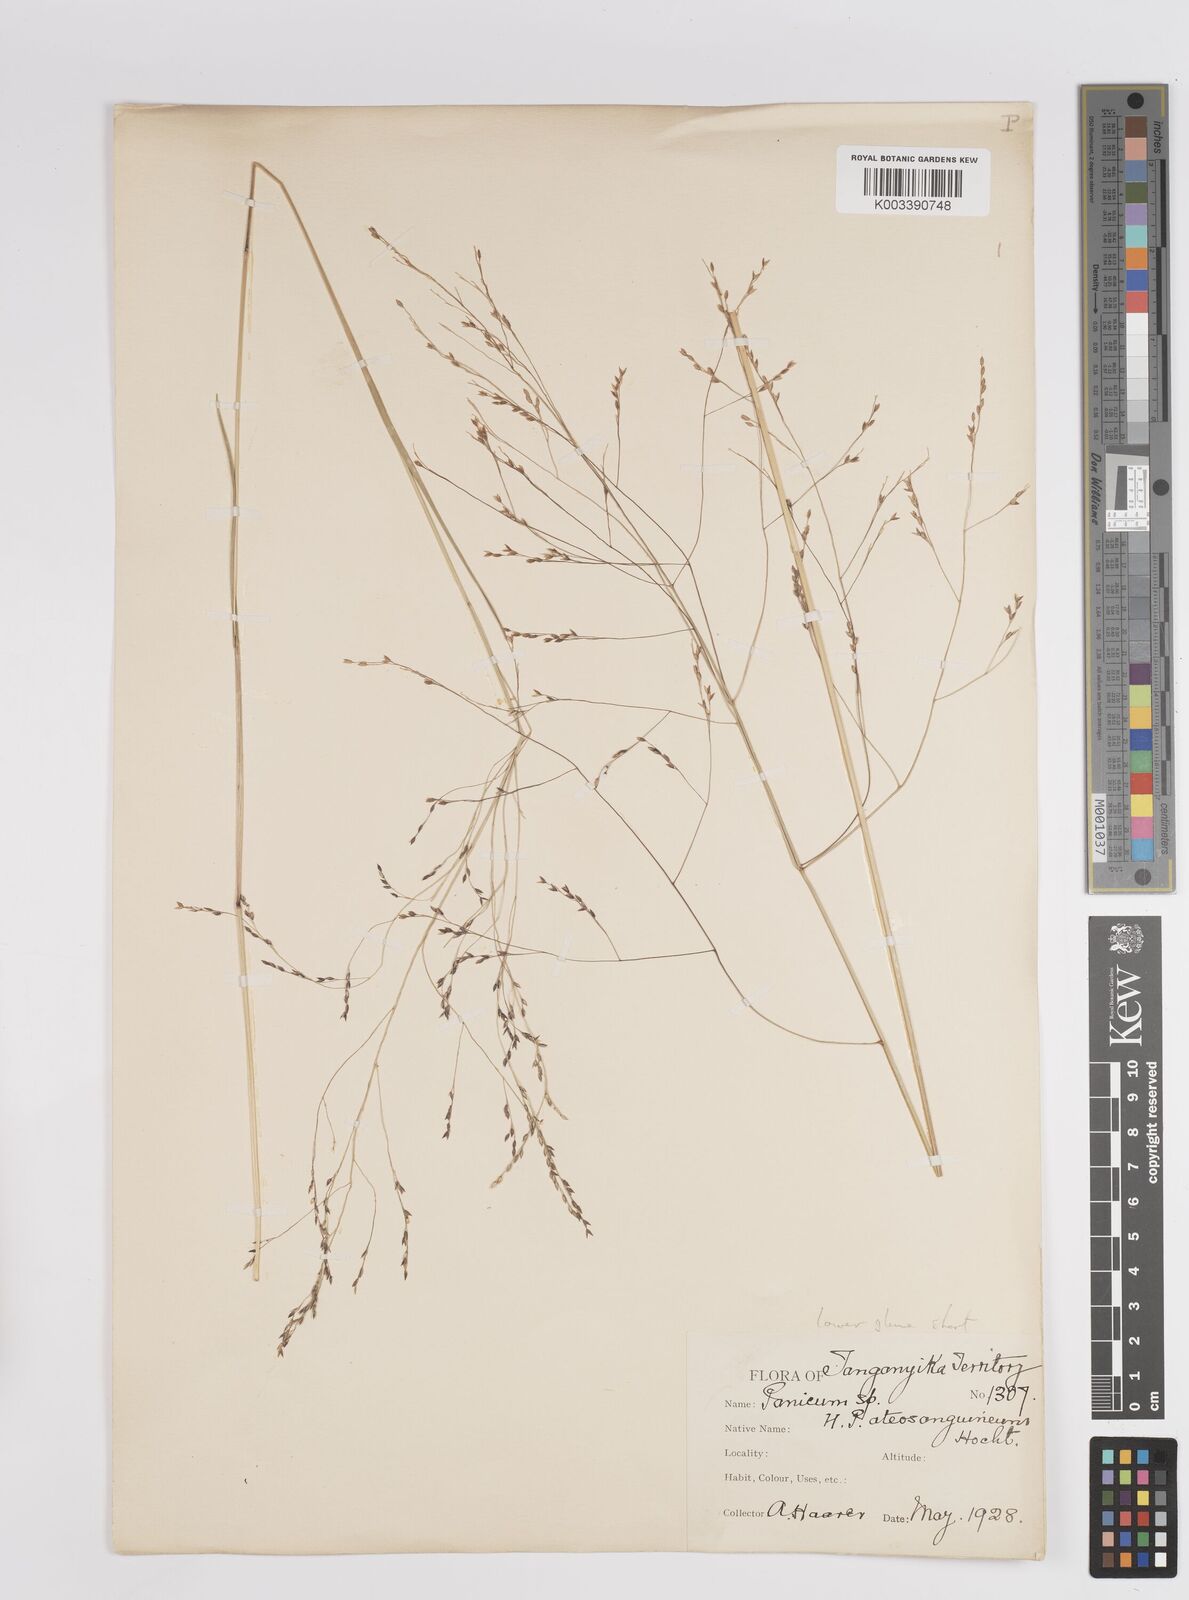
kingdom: Plantae
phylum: Tracheophyta
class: Liliopsida
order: Poales
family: Poaceae
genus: Panicum
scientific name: Panicum porphyrrhizos
